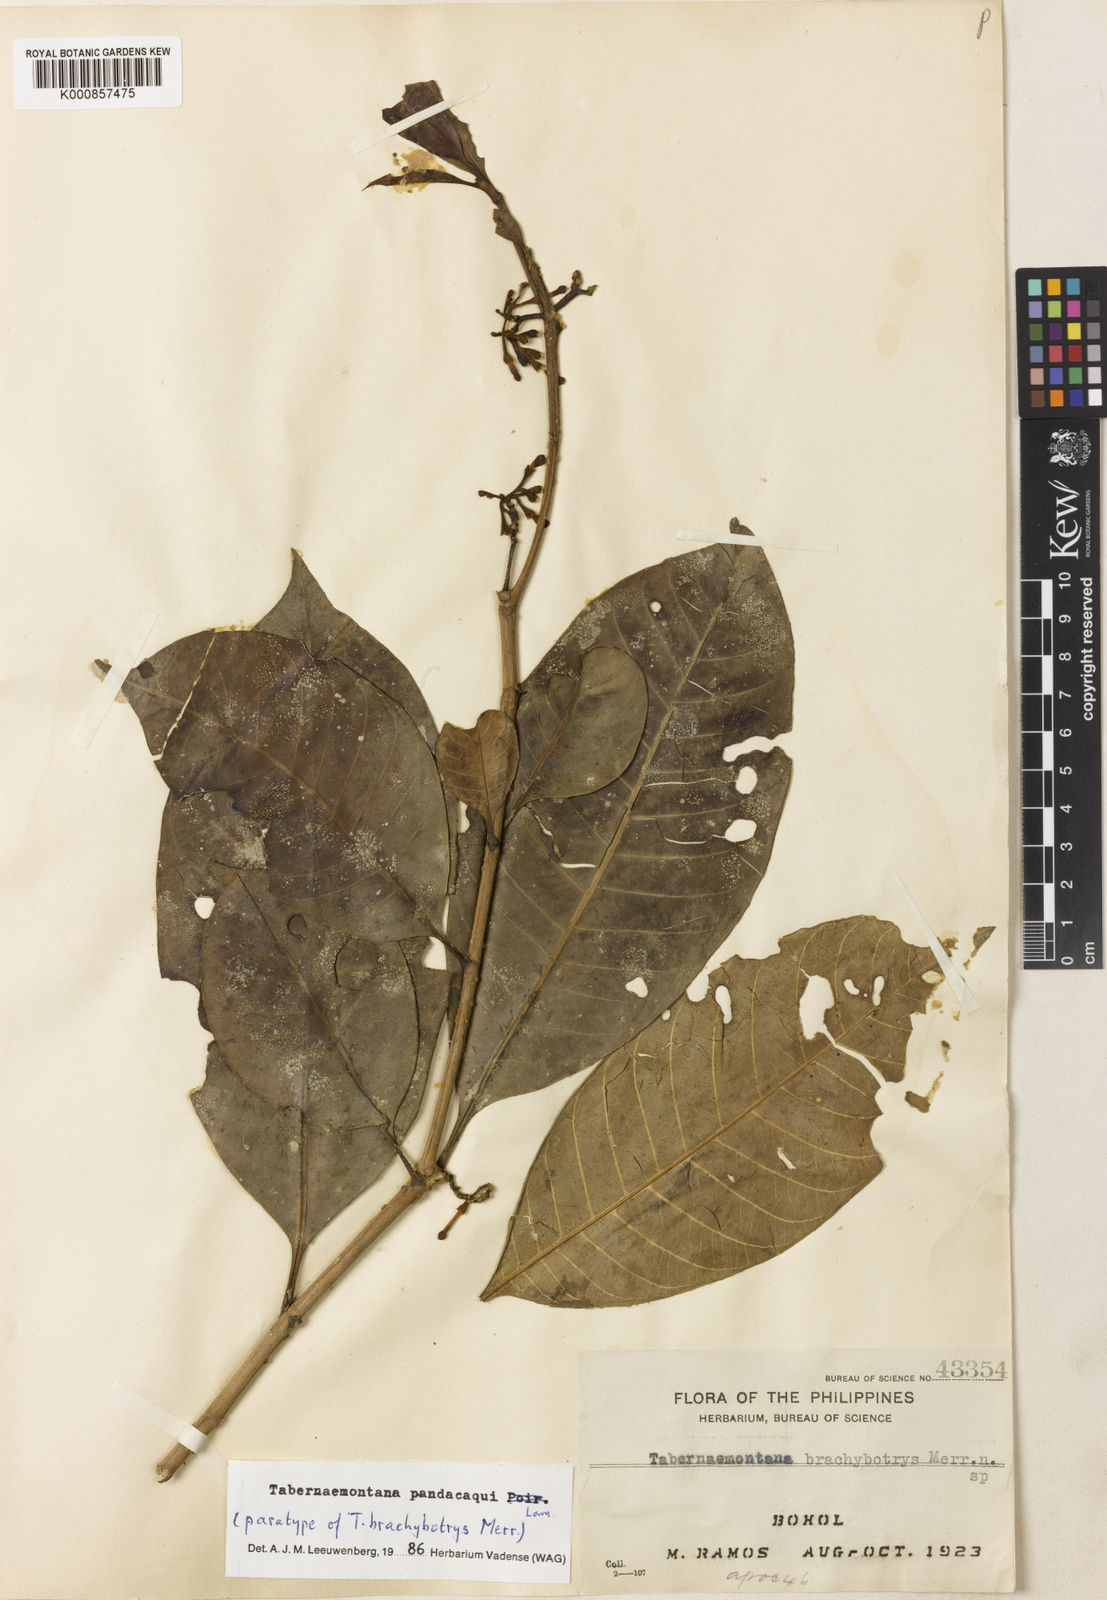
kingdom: Plantae
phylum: Tracheophyta
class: Magnoliopsida
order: Gentianales
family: Apocynaceae
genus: Tabernaemontana
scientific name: Tabernaemontana
